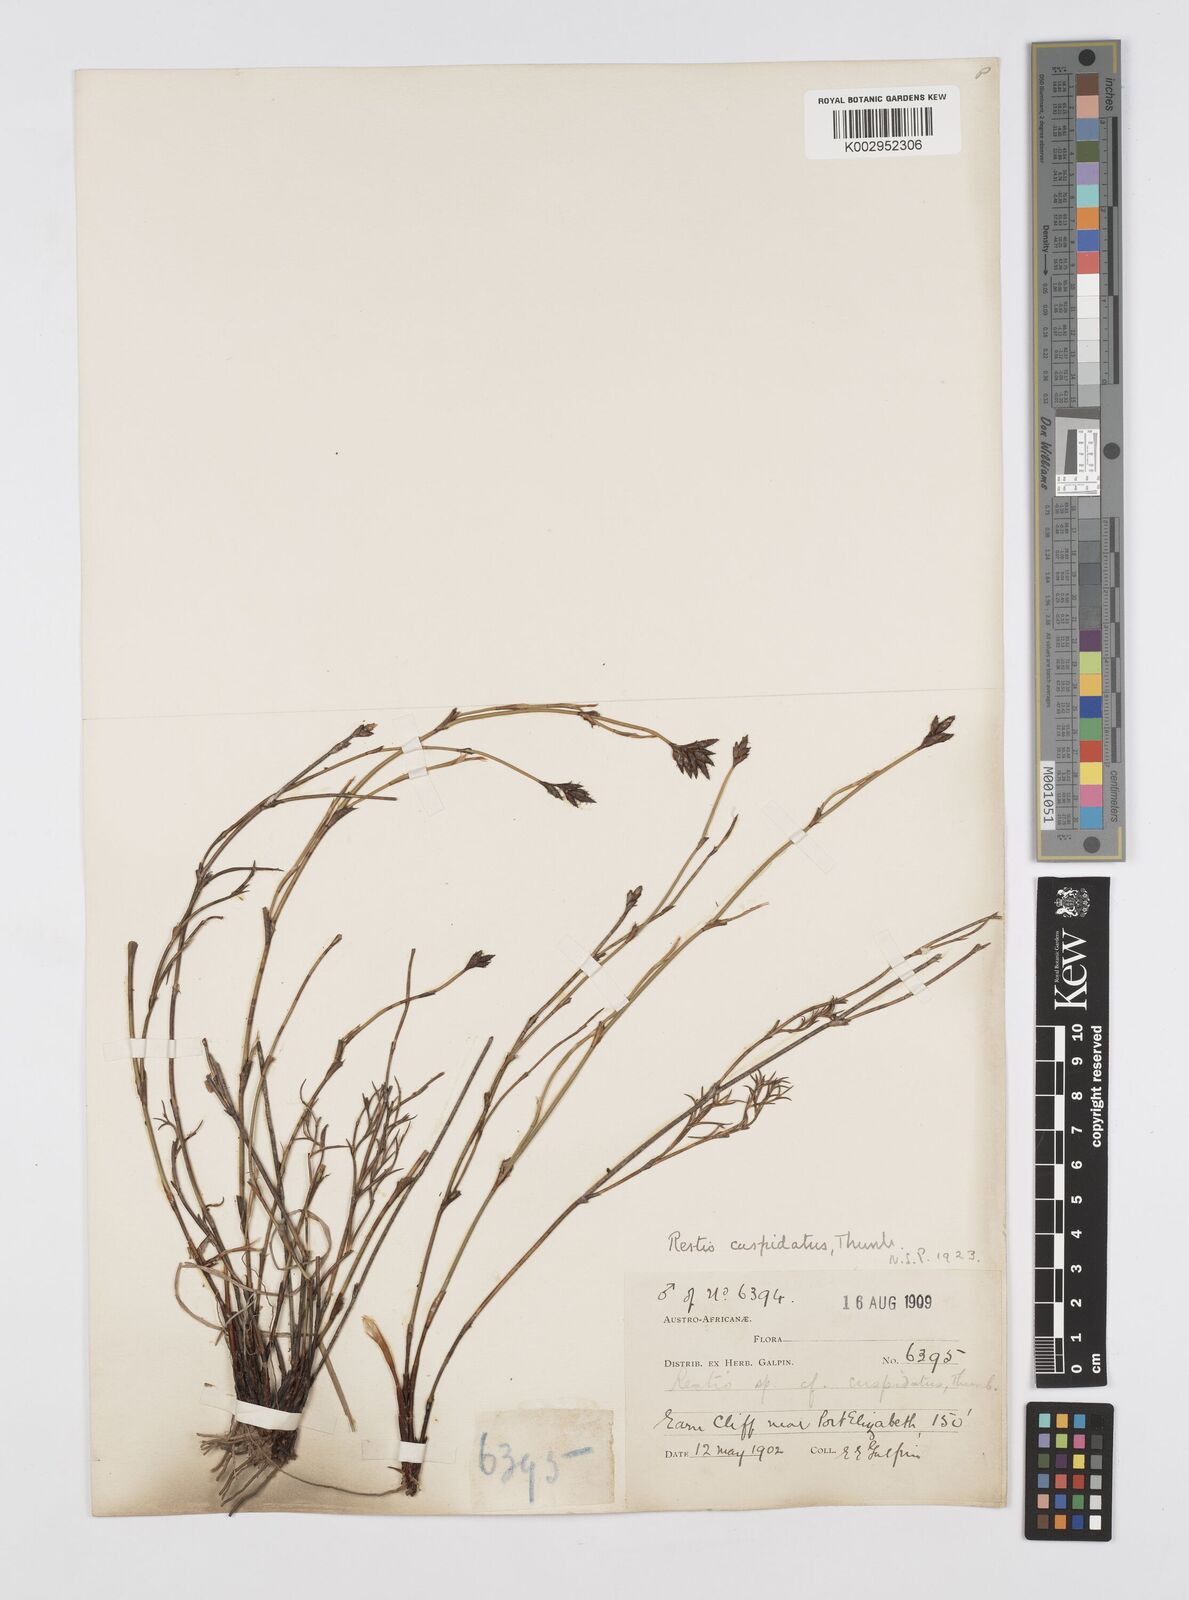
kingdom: Plantae
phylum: Tracheophyta
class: Liliopsida
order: Poales
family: Restionaceae
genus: Restio
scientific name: Restio capensis
